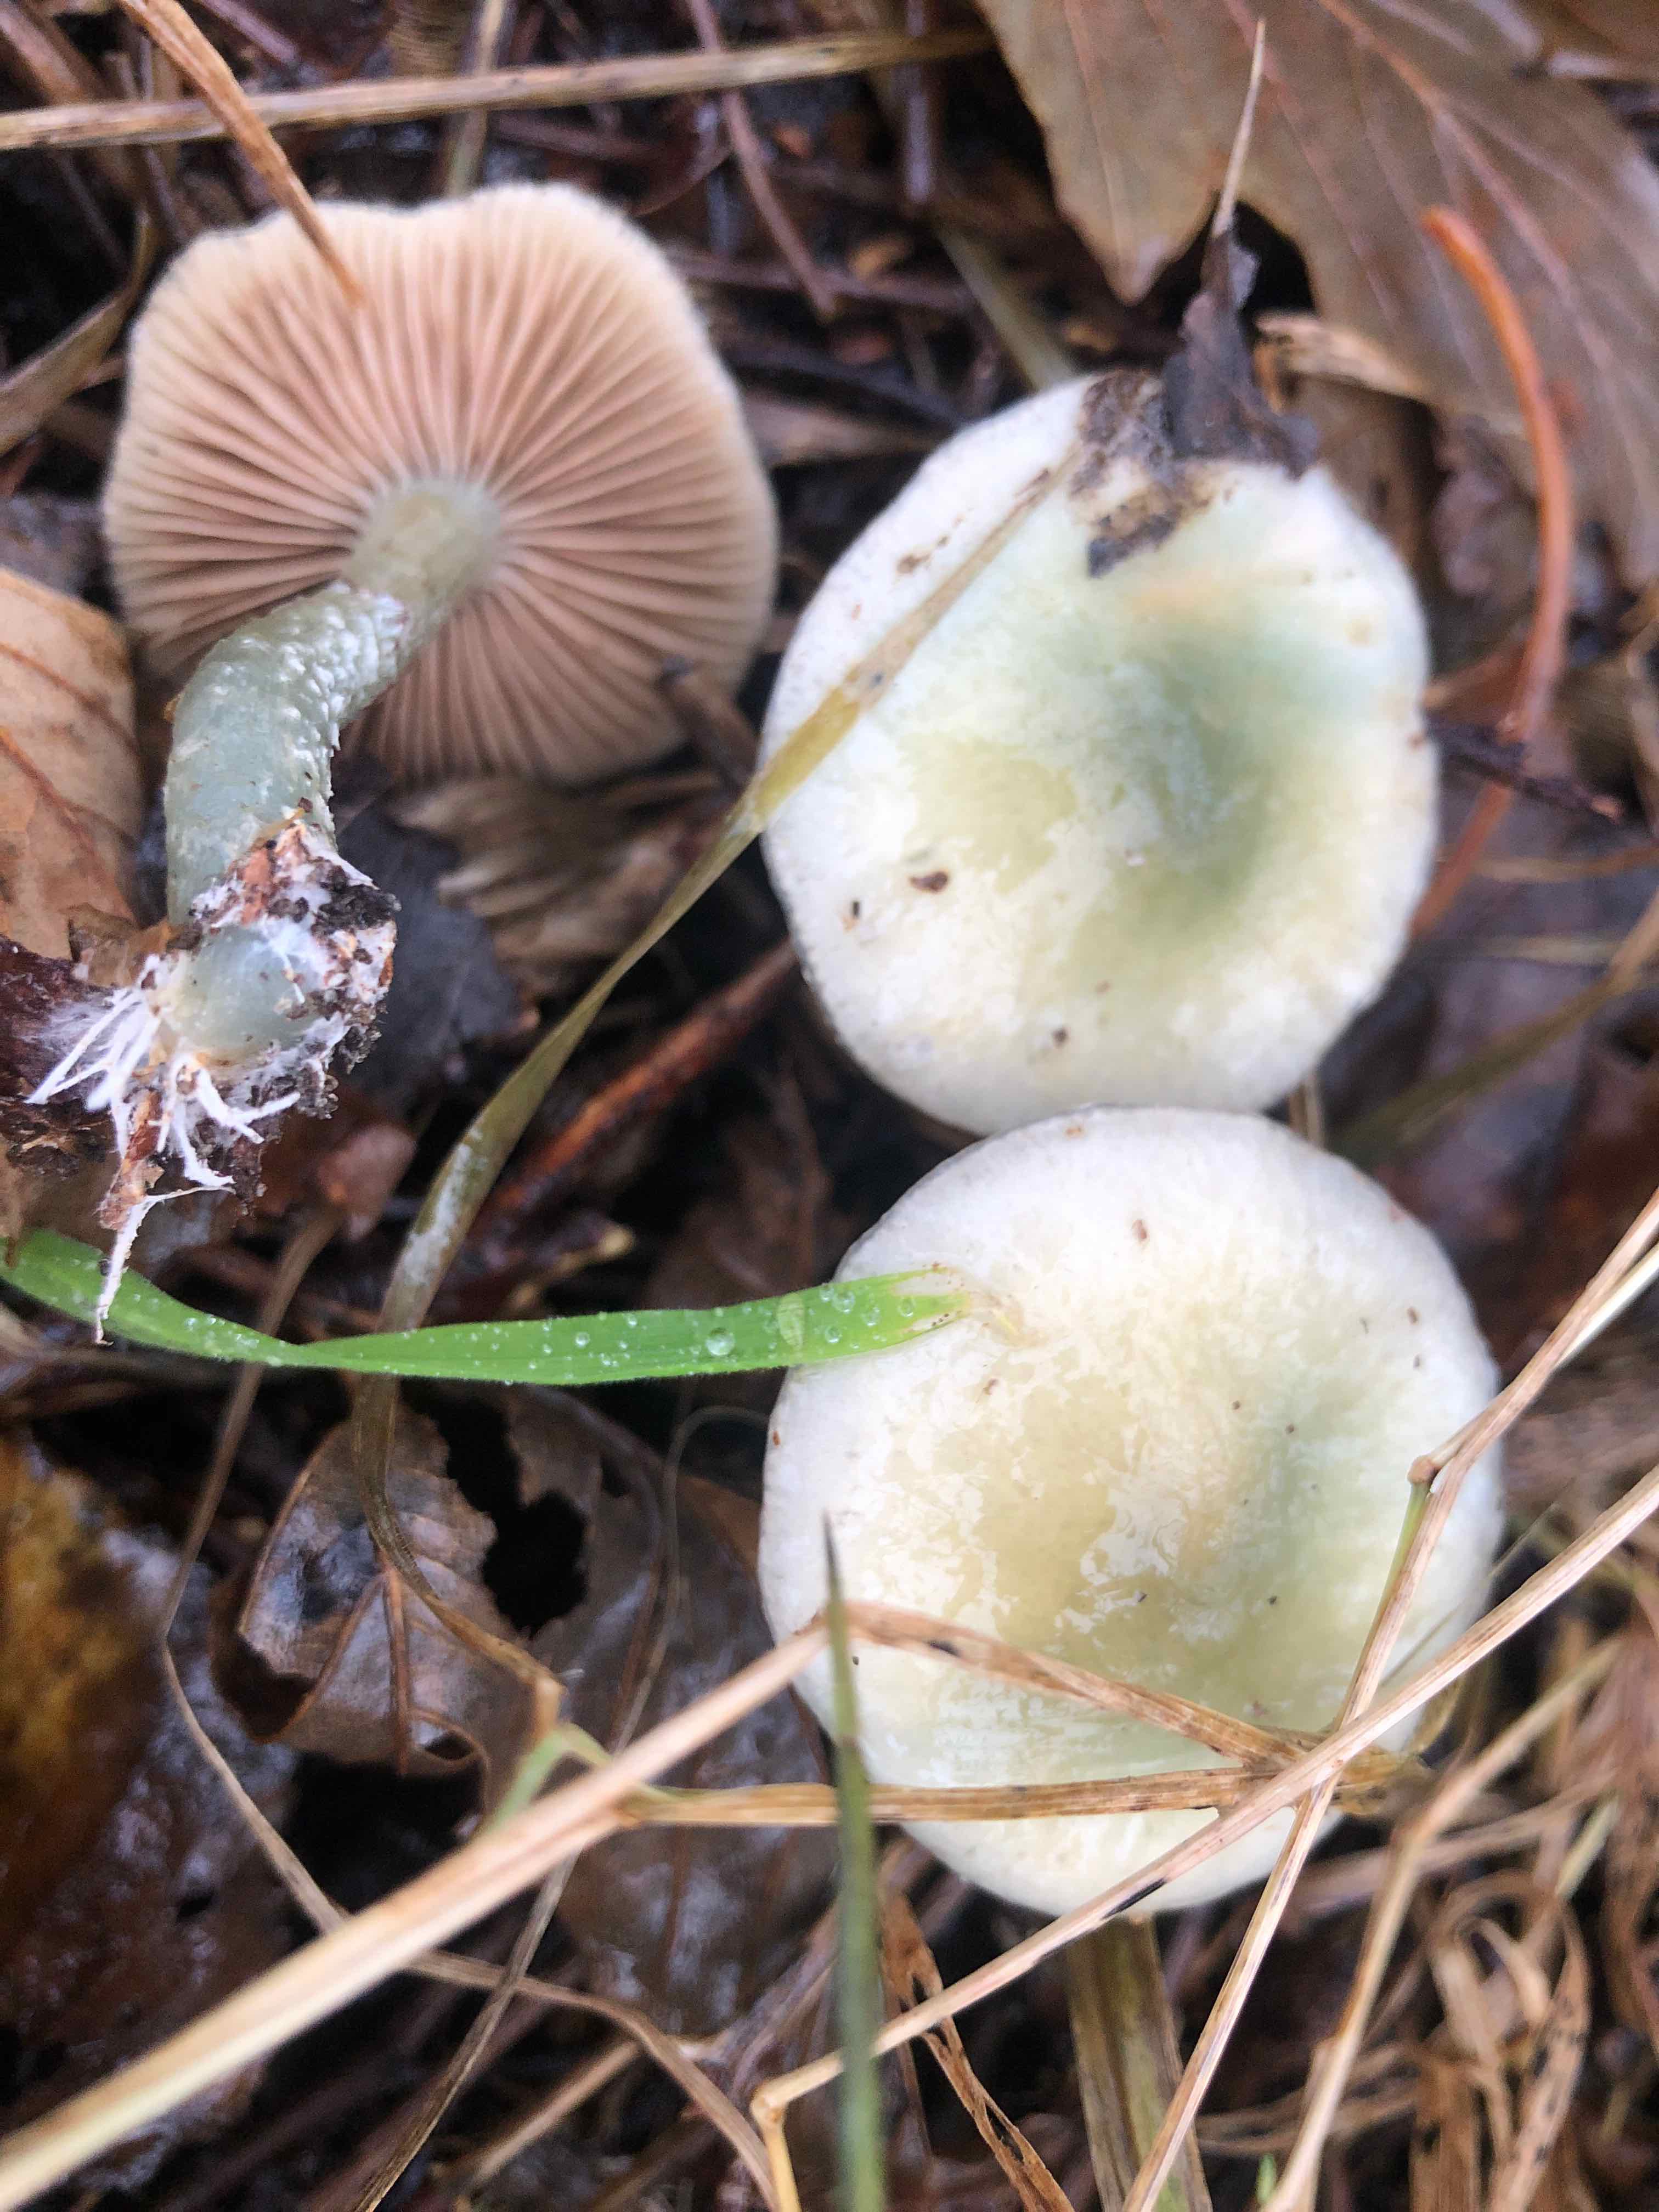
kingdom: Fungi
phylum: Basidiomycota
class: Agaricomycetes
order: Agaricales
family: Strophariaceae
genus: Stropharia
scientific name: Stropharia cyanea
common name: blågrøn bredblad
